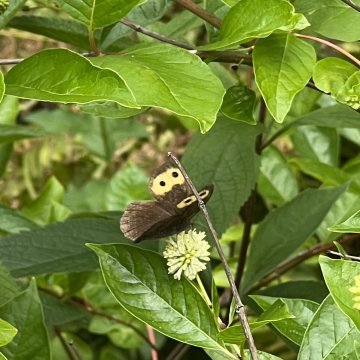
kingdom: Animalia
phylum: Arthropoda
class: Insecta
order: Lepidoptera
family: Nymphalidae
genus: Cercyonis
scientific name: Cercyonis pegala
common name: Common Wood-Nymph
